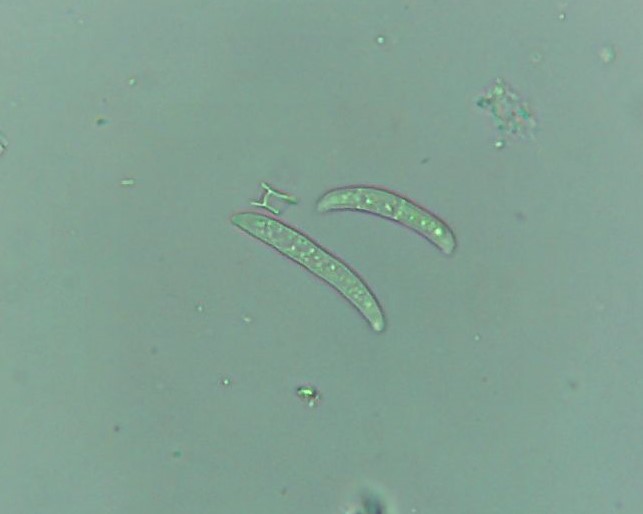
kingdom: Fungi
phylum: Ascomycota
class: Sordariomycetes
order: Hypocreales
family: Nectriaceae
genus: Fusarium
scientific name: Fusarium
